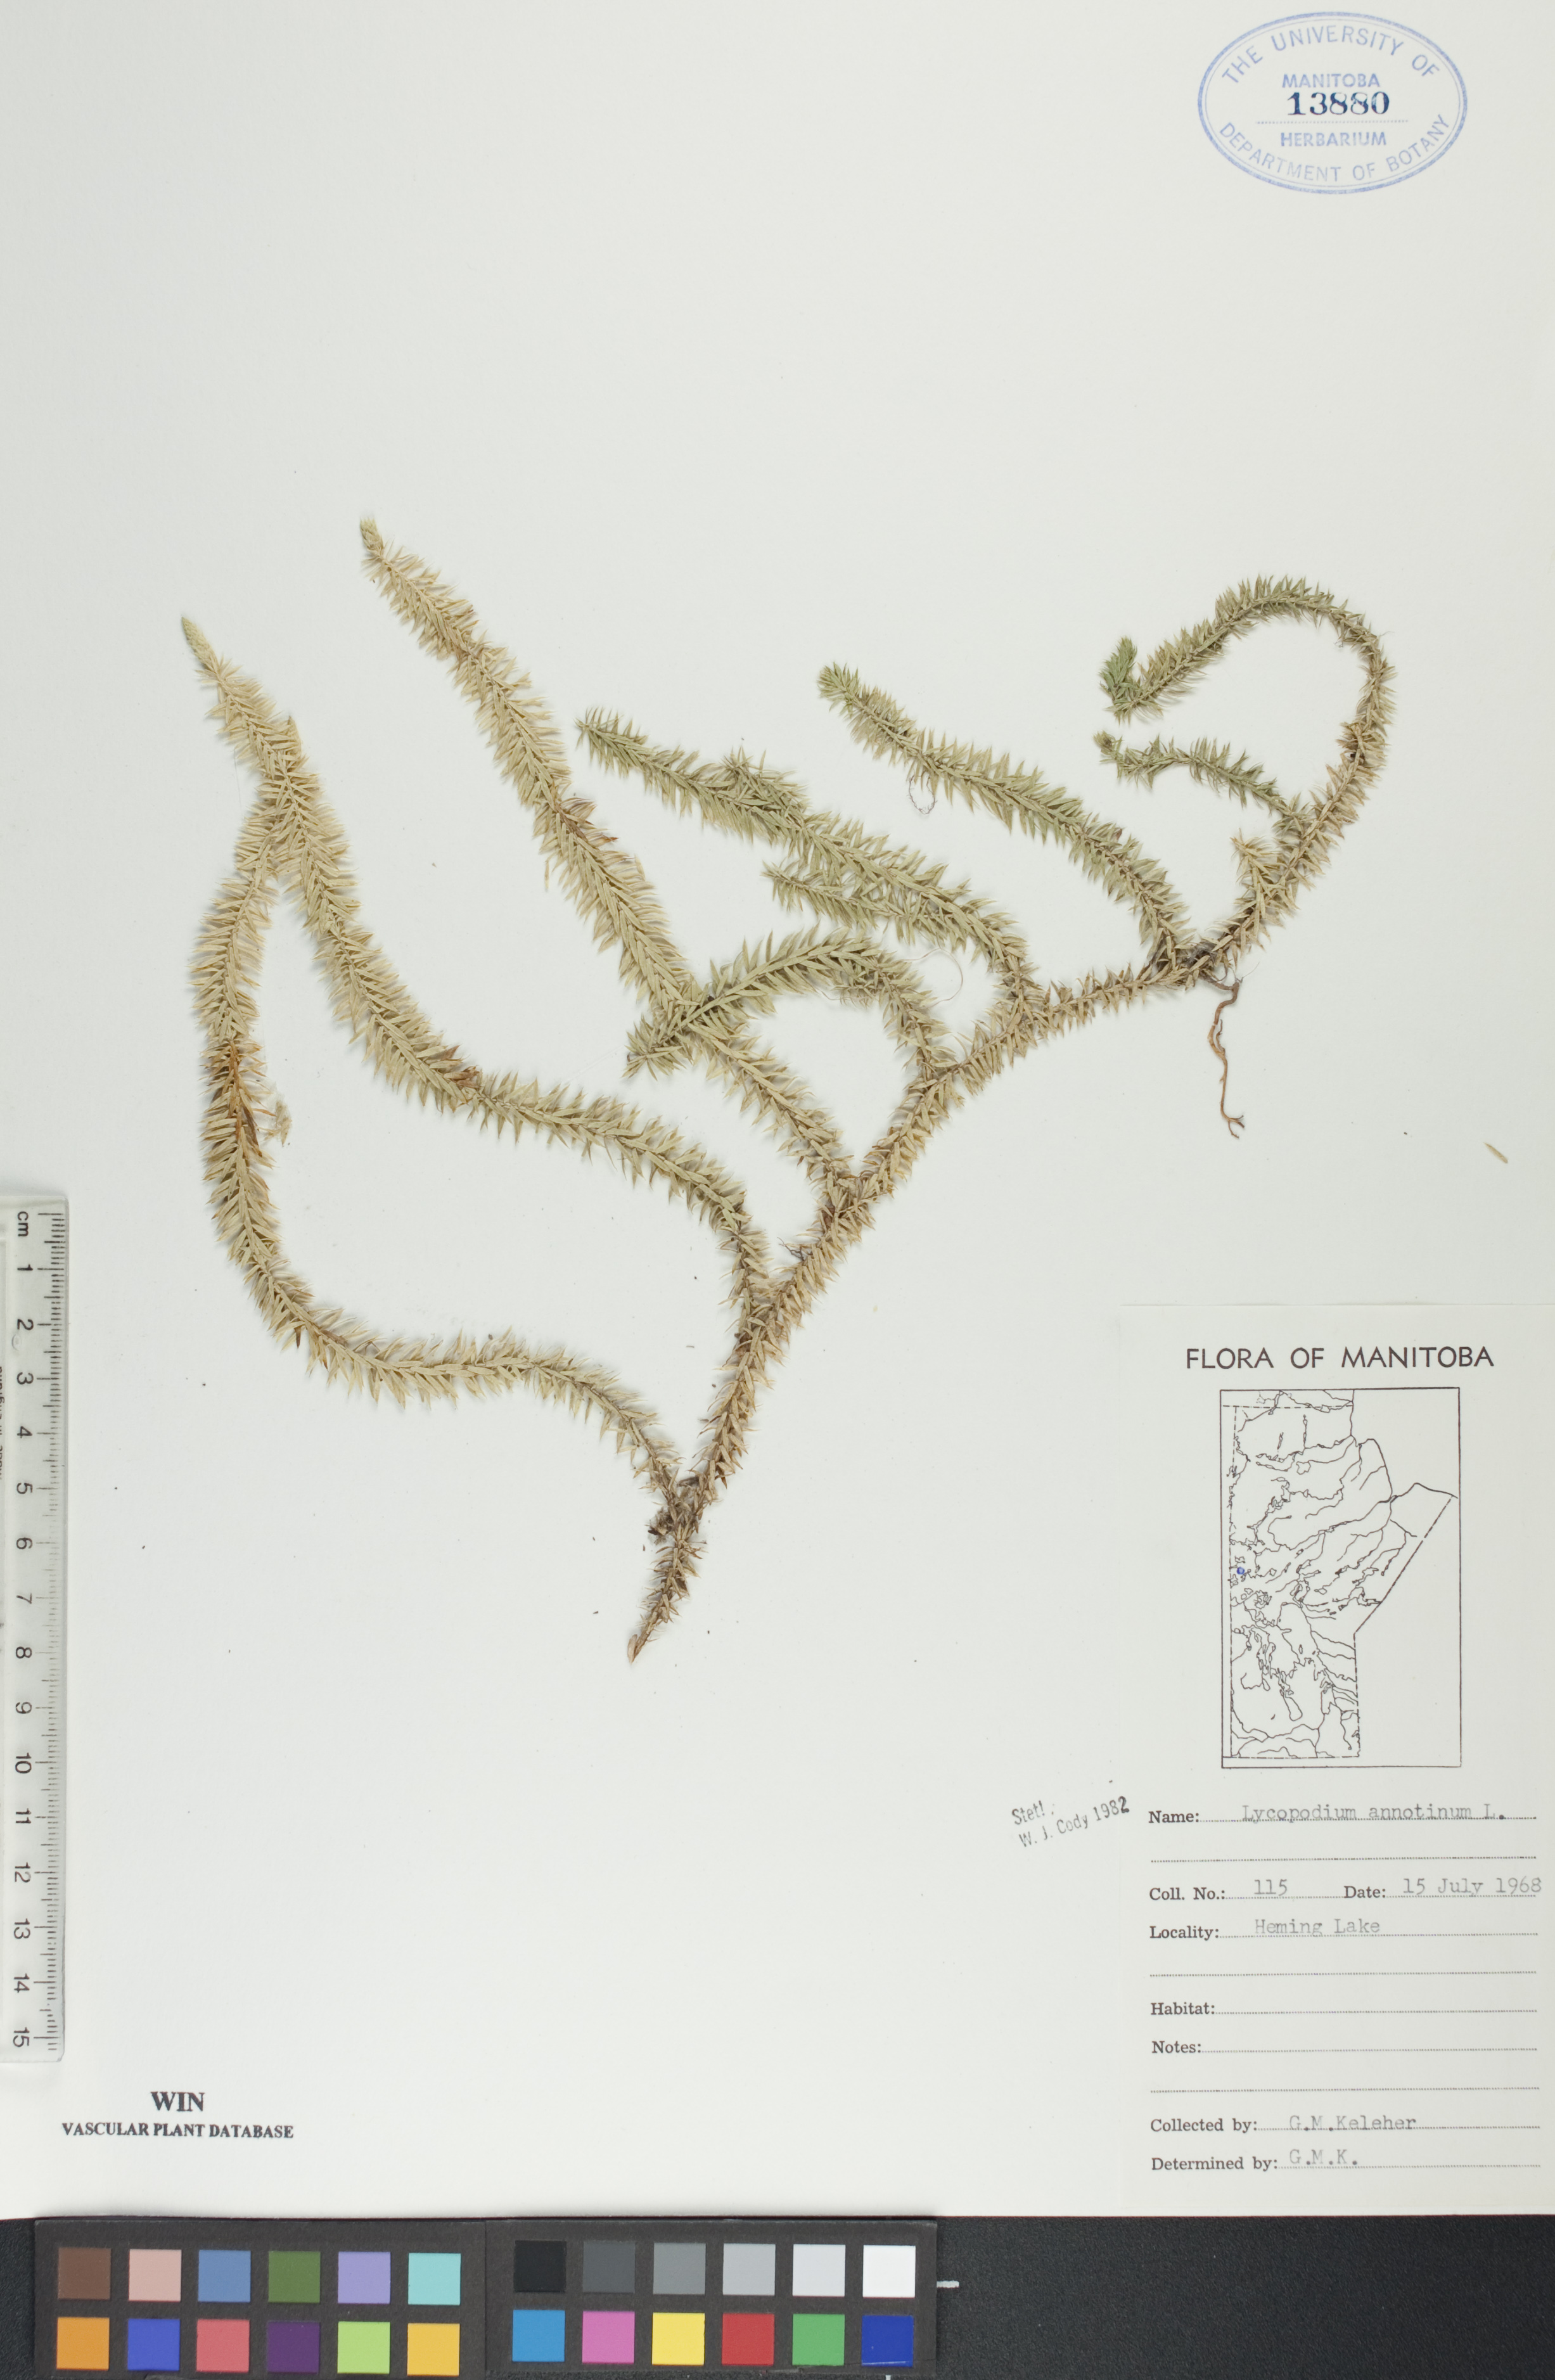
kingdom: Plantae
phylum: Tracheophyta
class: Lycopodiopsida
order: Lycopodiales
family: Lycopodiaceae
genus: Spinulum
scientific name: Spinulum annotinum
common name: Interrupted club-moss
